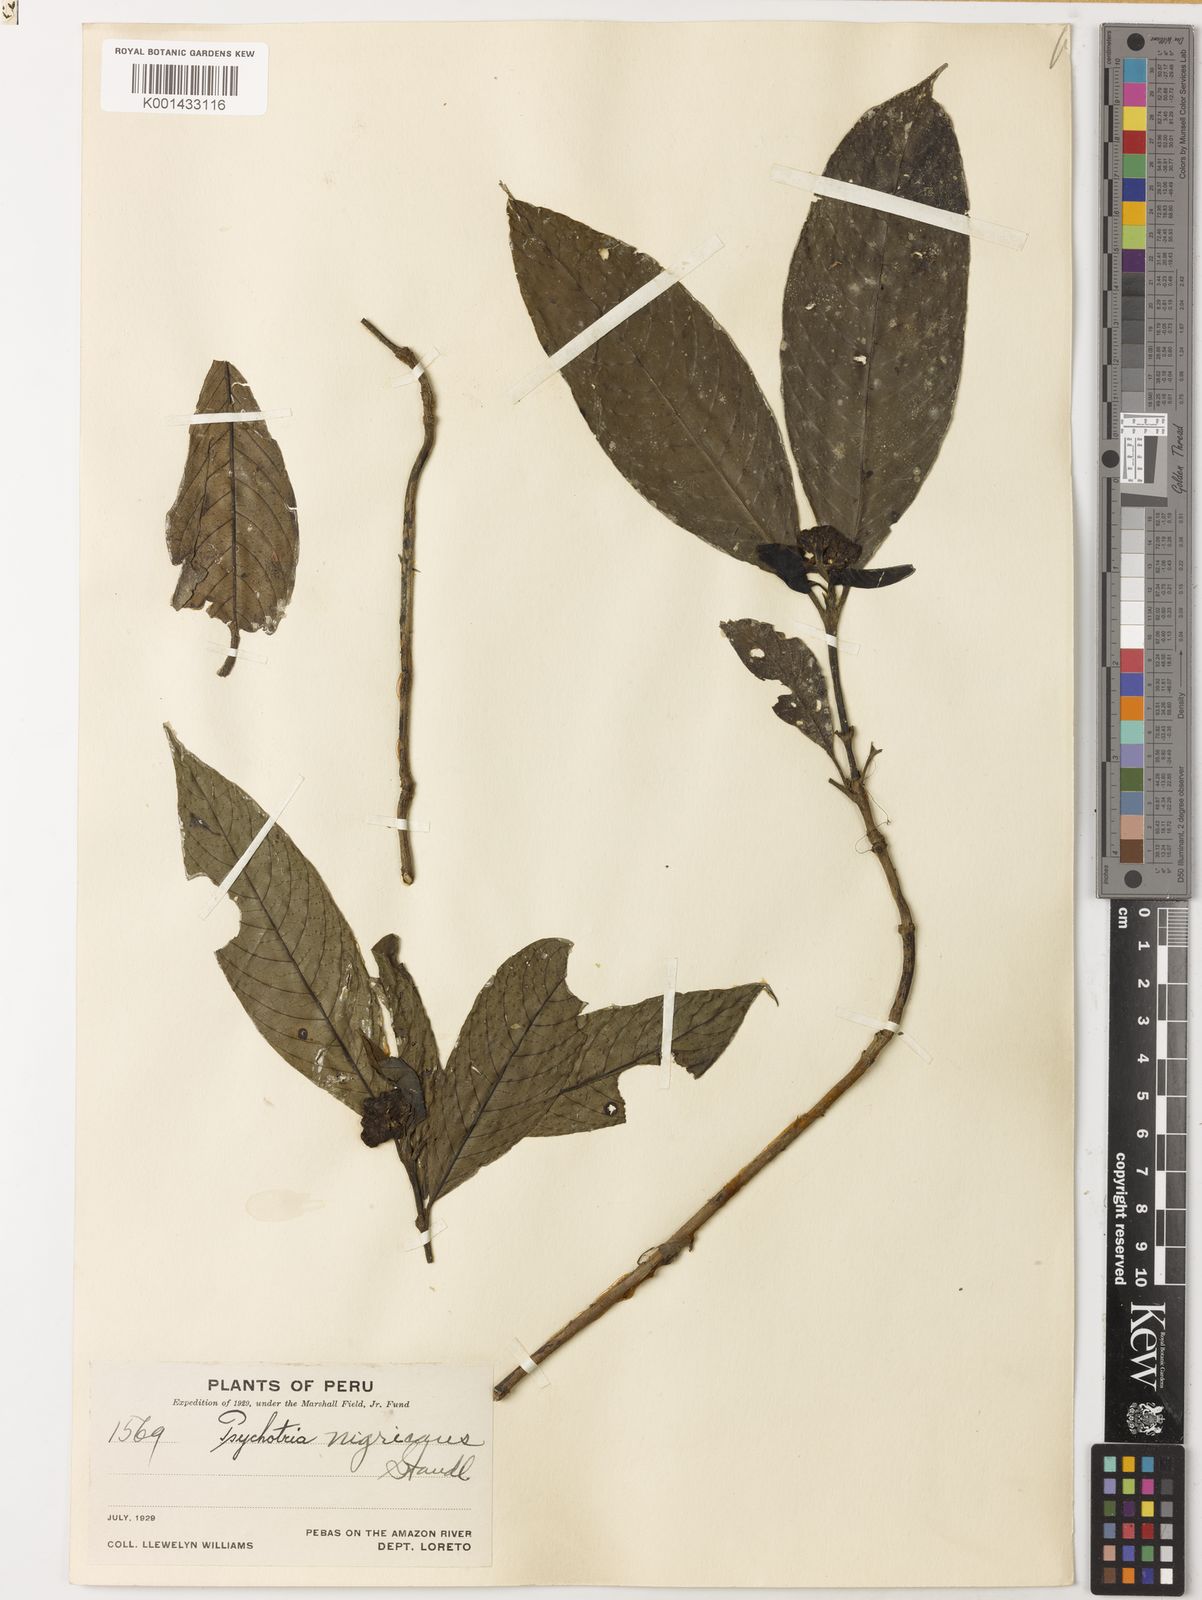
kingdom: Plantae
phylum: Tracheophyta
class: Magnoliopsida
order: Gentianales
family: Rubiaceae
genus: Palicourea
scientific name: Palicourea lachnantha
